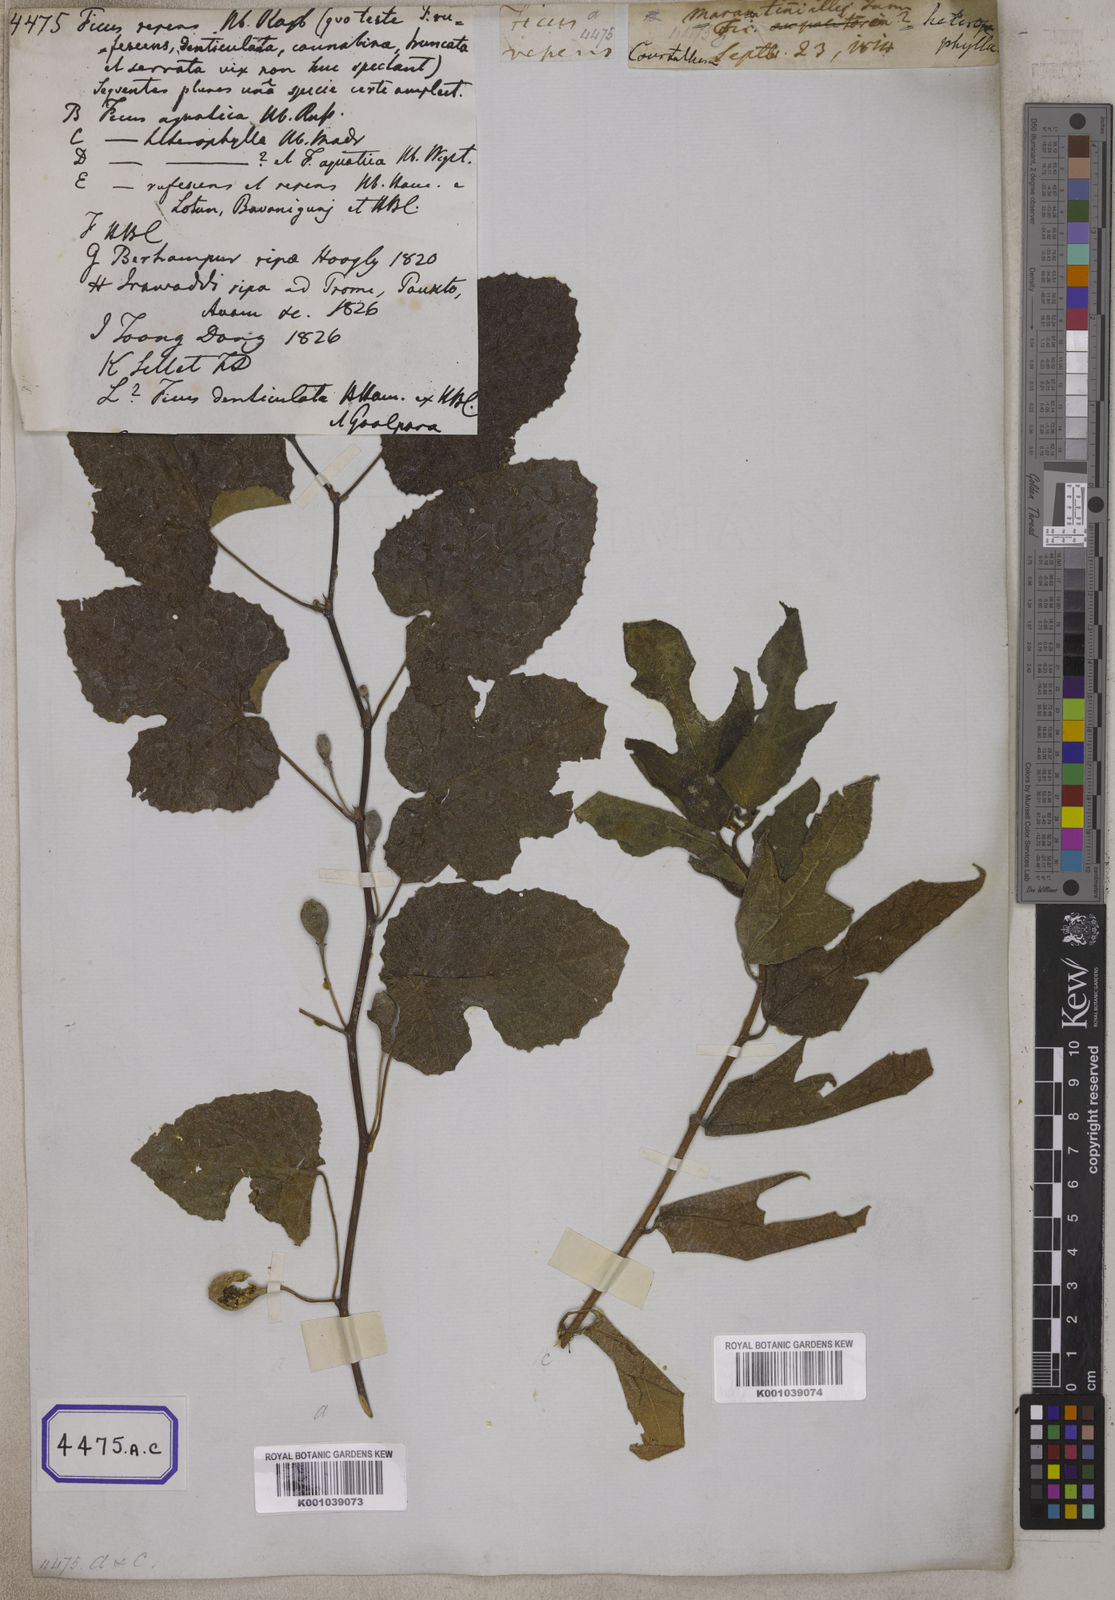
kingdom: Plantae
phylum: Tracheophyta
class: Magnoliopsida
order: Rosales
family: Moraceae
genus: Ficus
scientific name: Ficus
